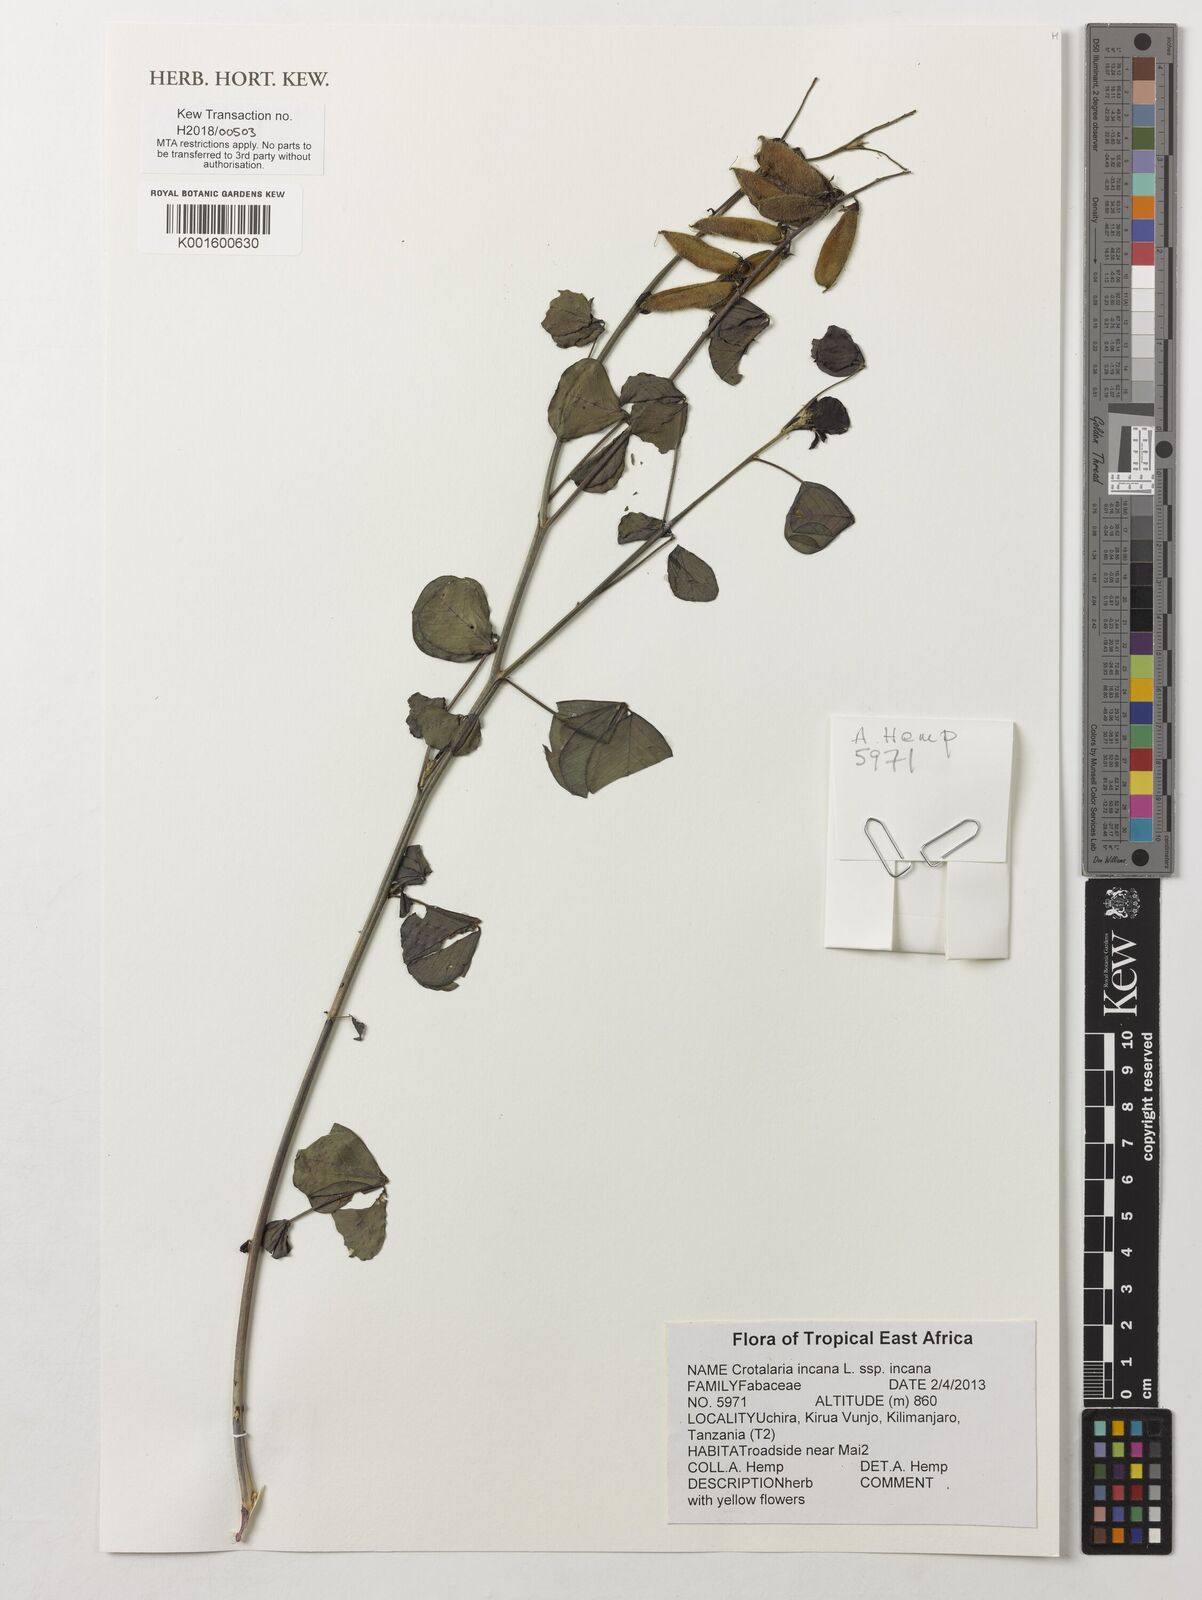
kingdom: Plantae
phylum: Tracheophyta
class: Magnoliopsida
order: Fabales
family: Fabaceae
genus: Crotalaria
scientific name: Crotalaria incana
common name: Shakeshake
